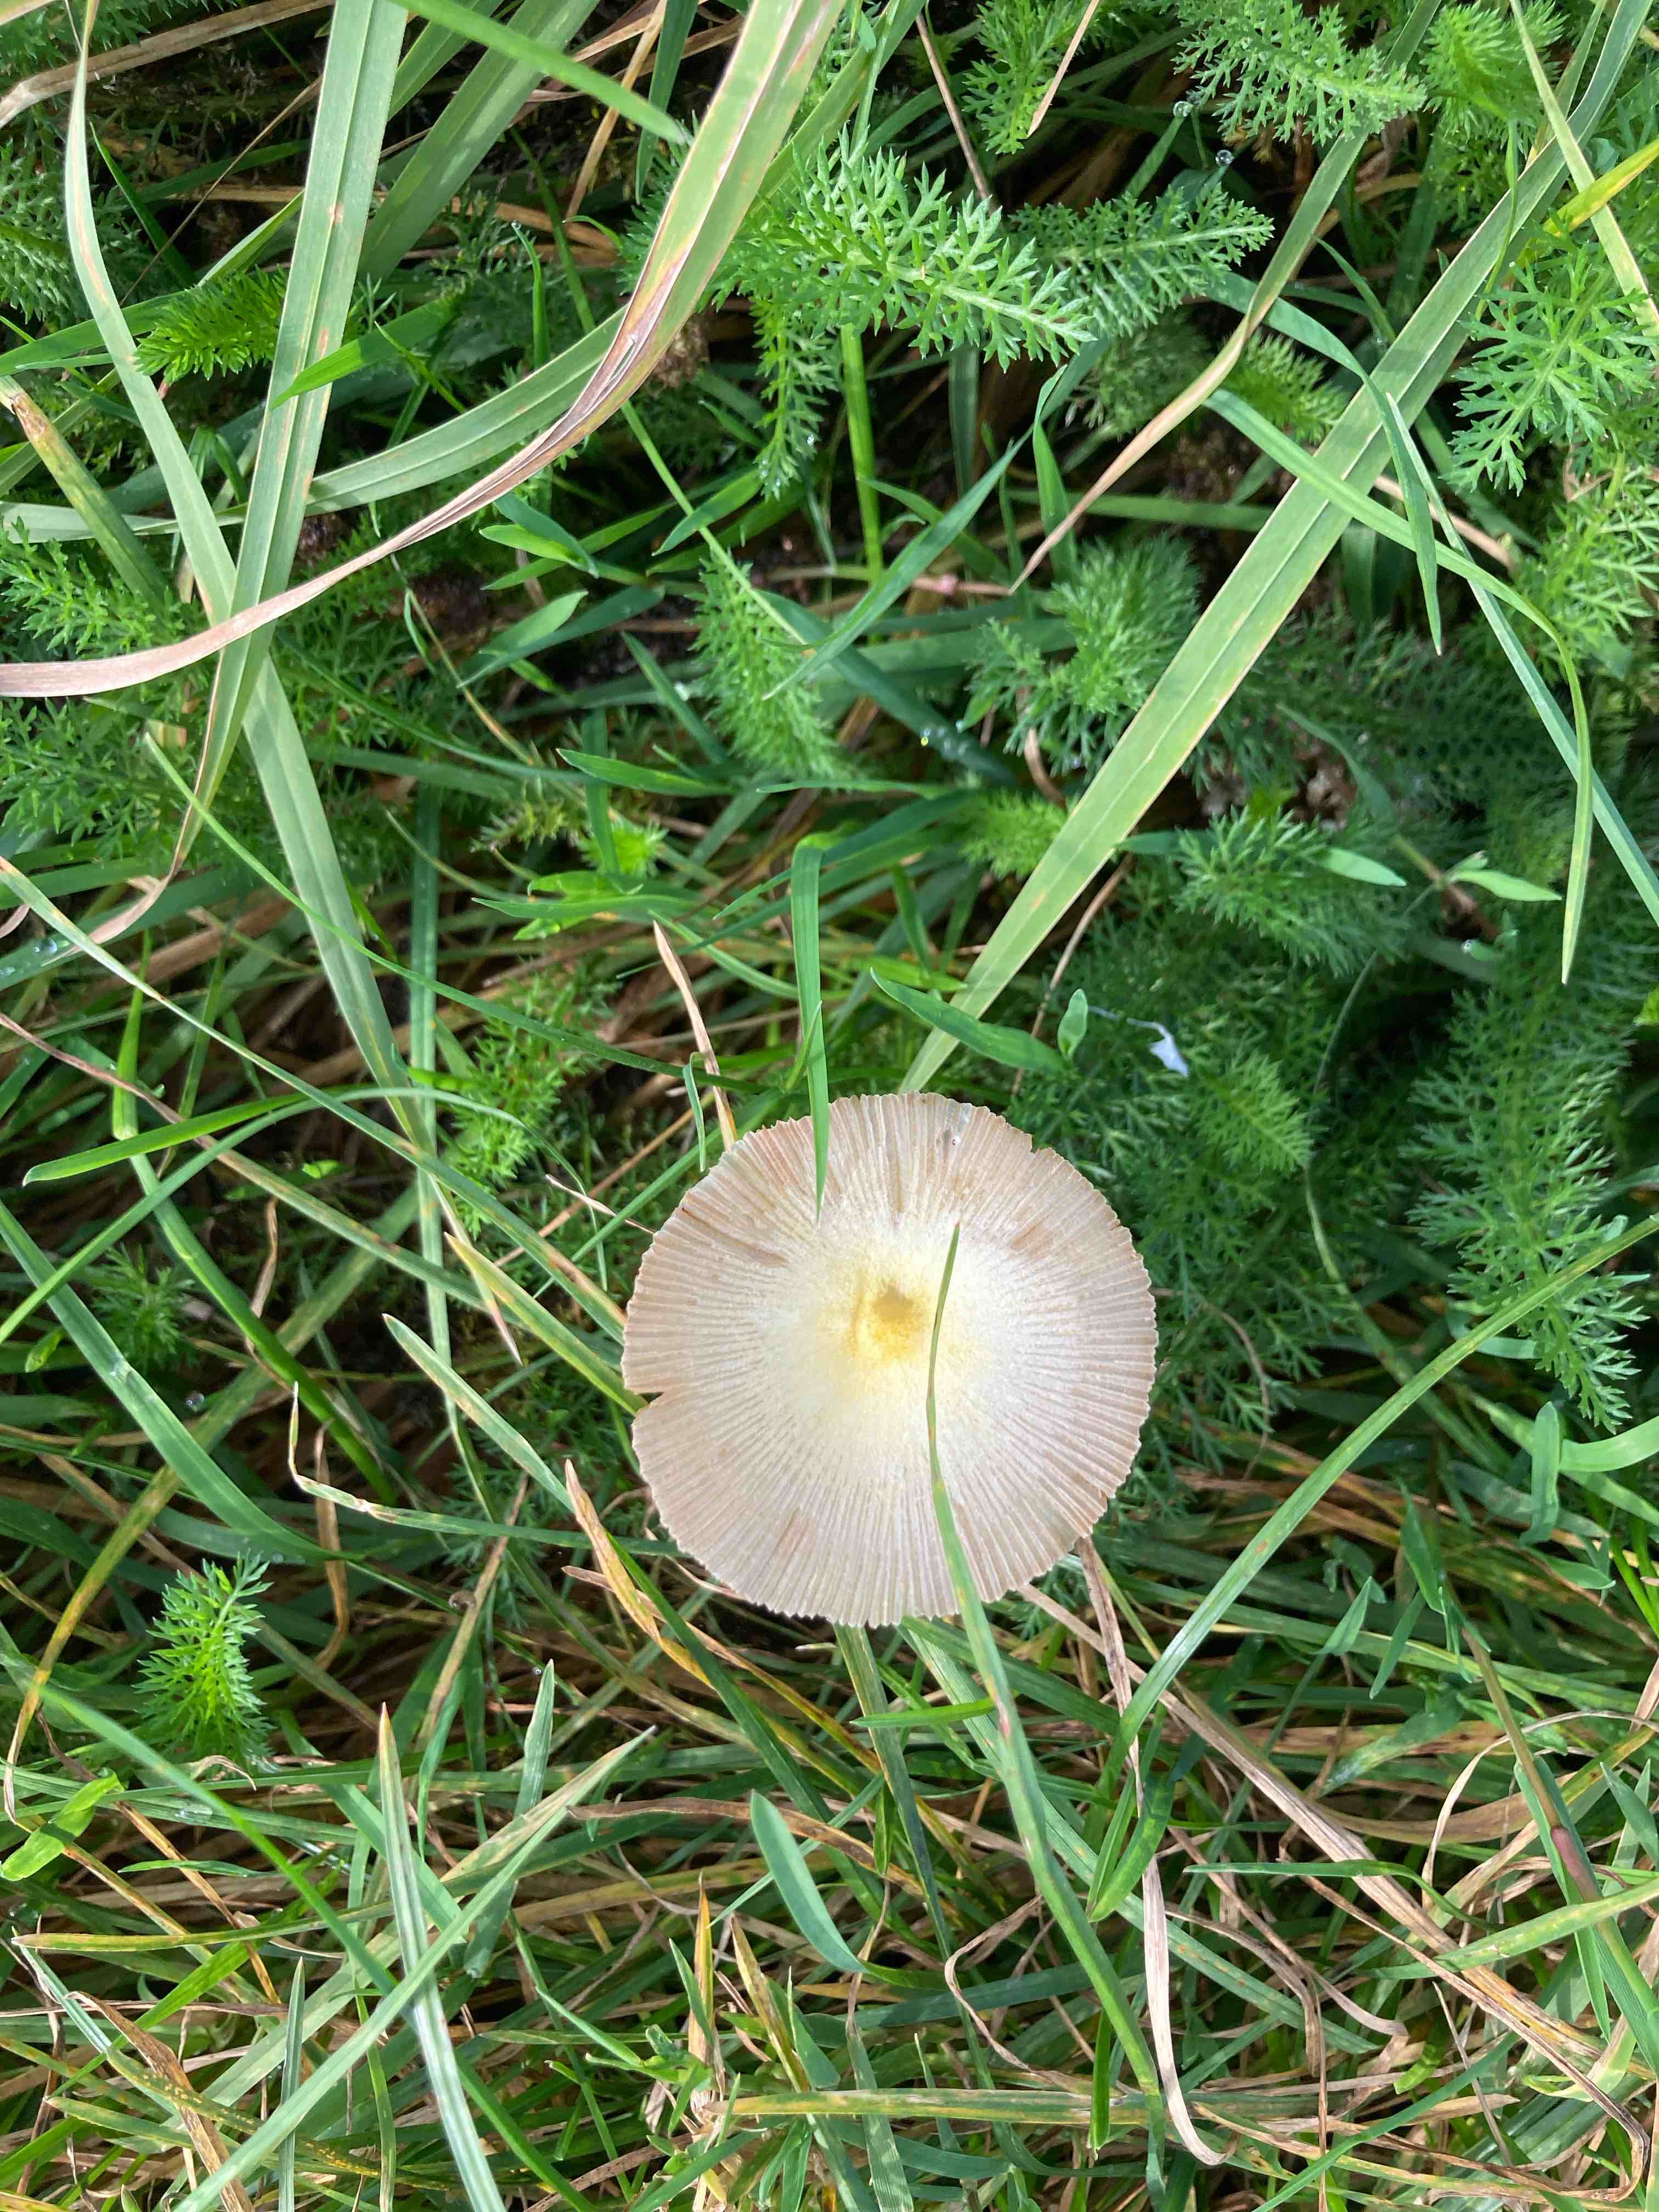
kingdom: Fungi
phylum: Basidiomycota
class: Agaricomycetes
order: Agaricales
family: Bolbitiaceae
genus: Bolbitius
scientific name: Bolbitius titubans
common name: almindelig gulhat
